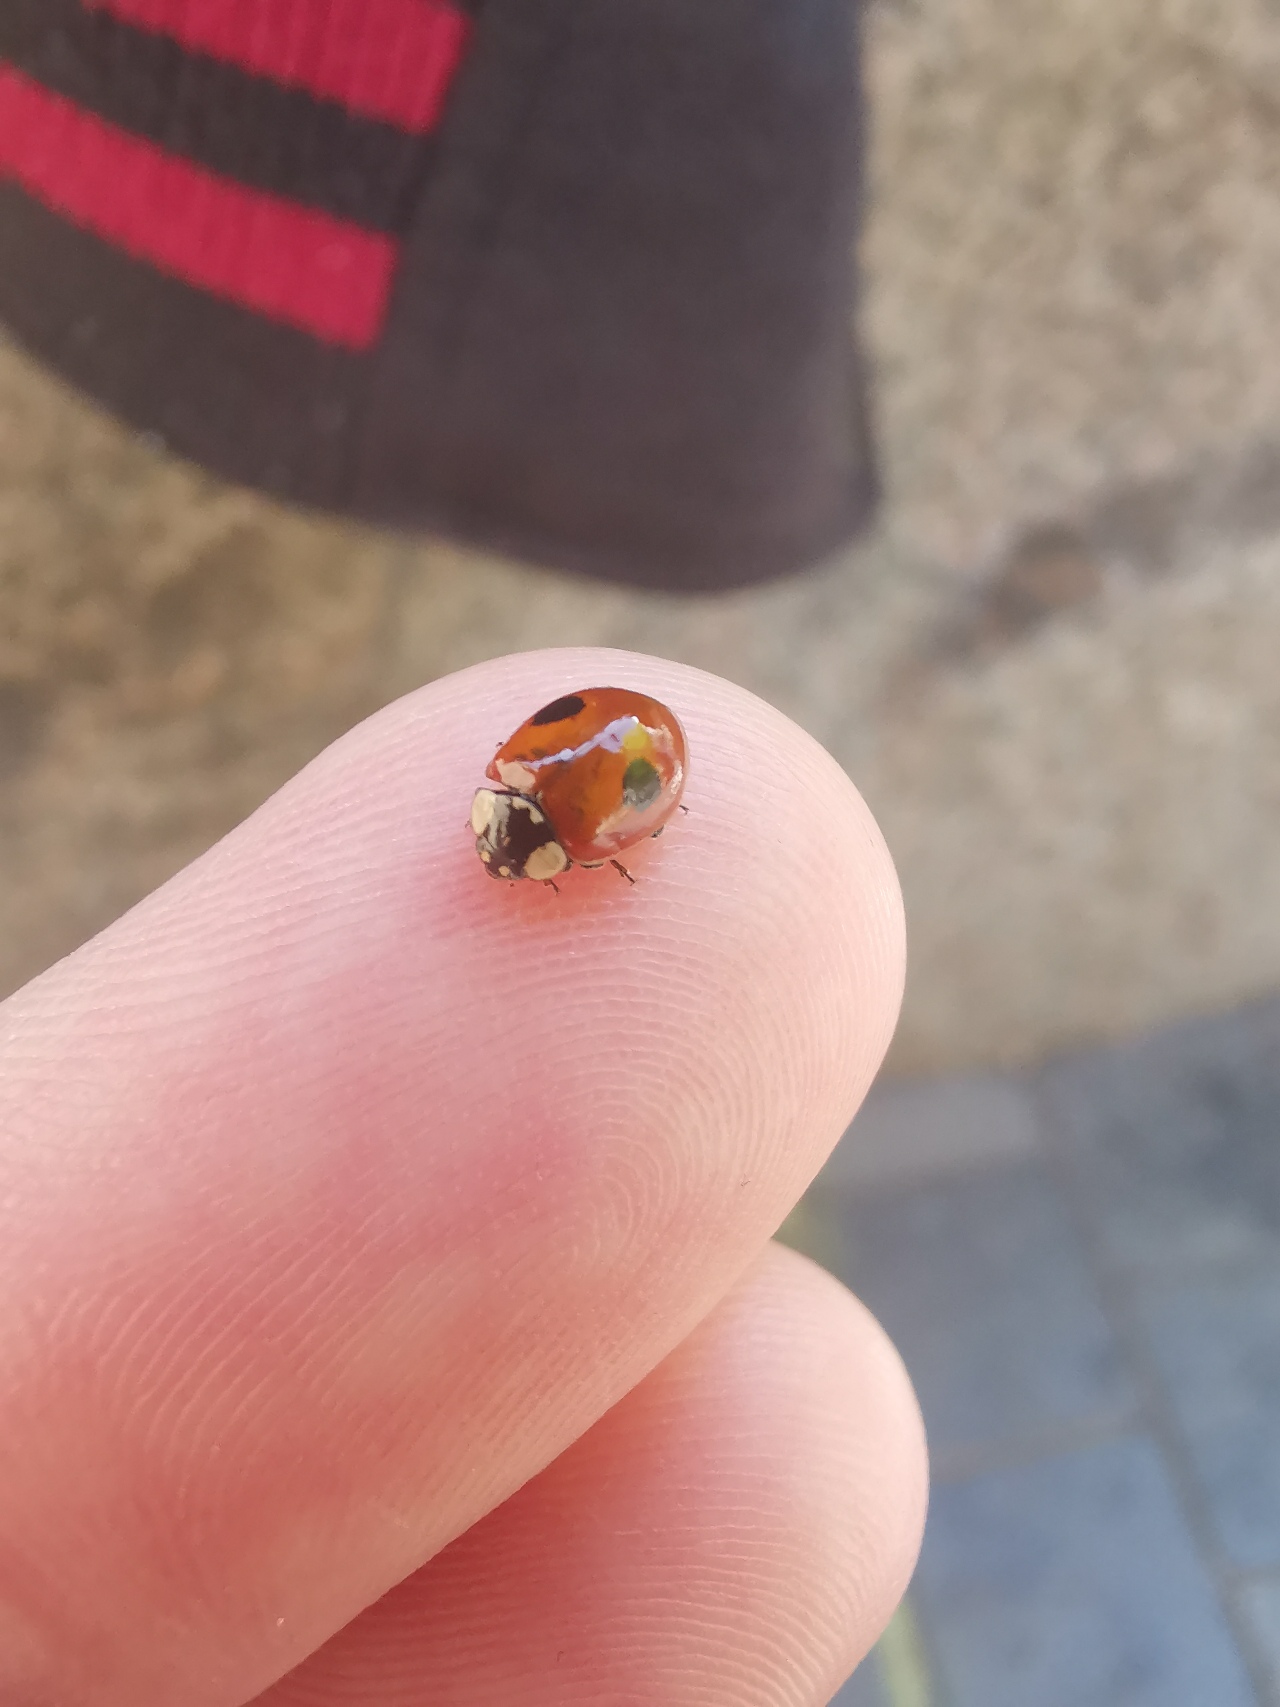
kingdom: Animalia
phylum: Arthropoda
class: Insecta
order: Coleoptera
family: Coccinellidae
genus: Adalia
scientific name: Adalia bipunctata
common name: Toplettet mariehøne
